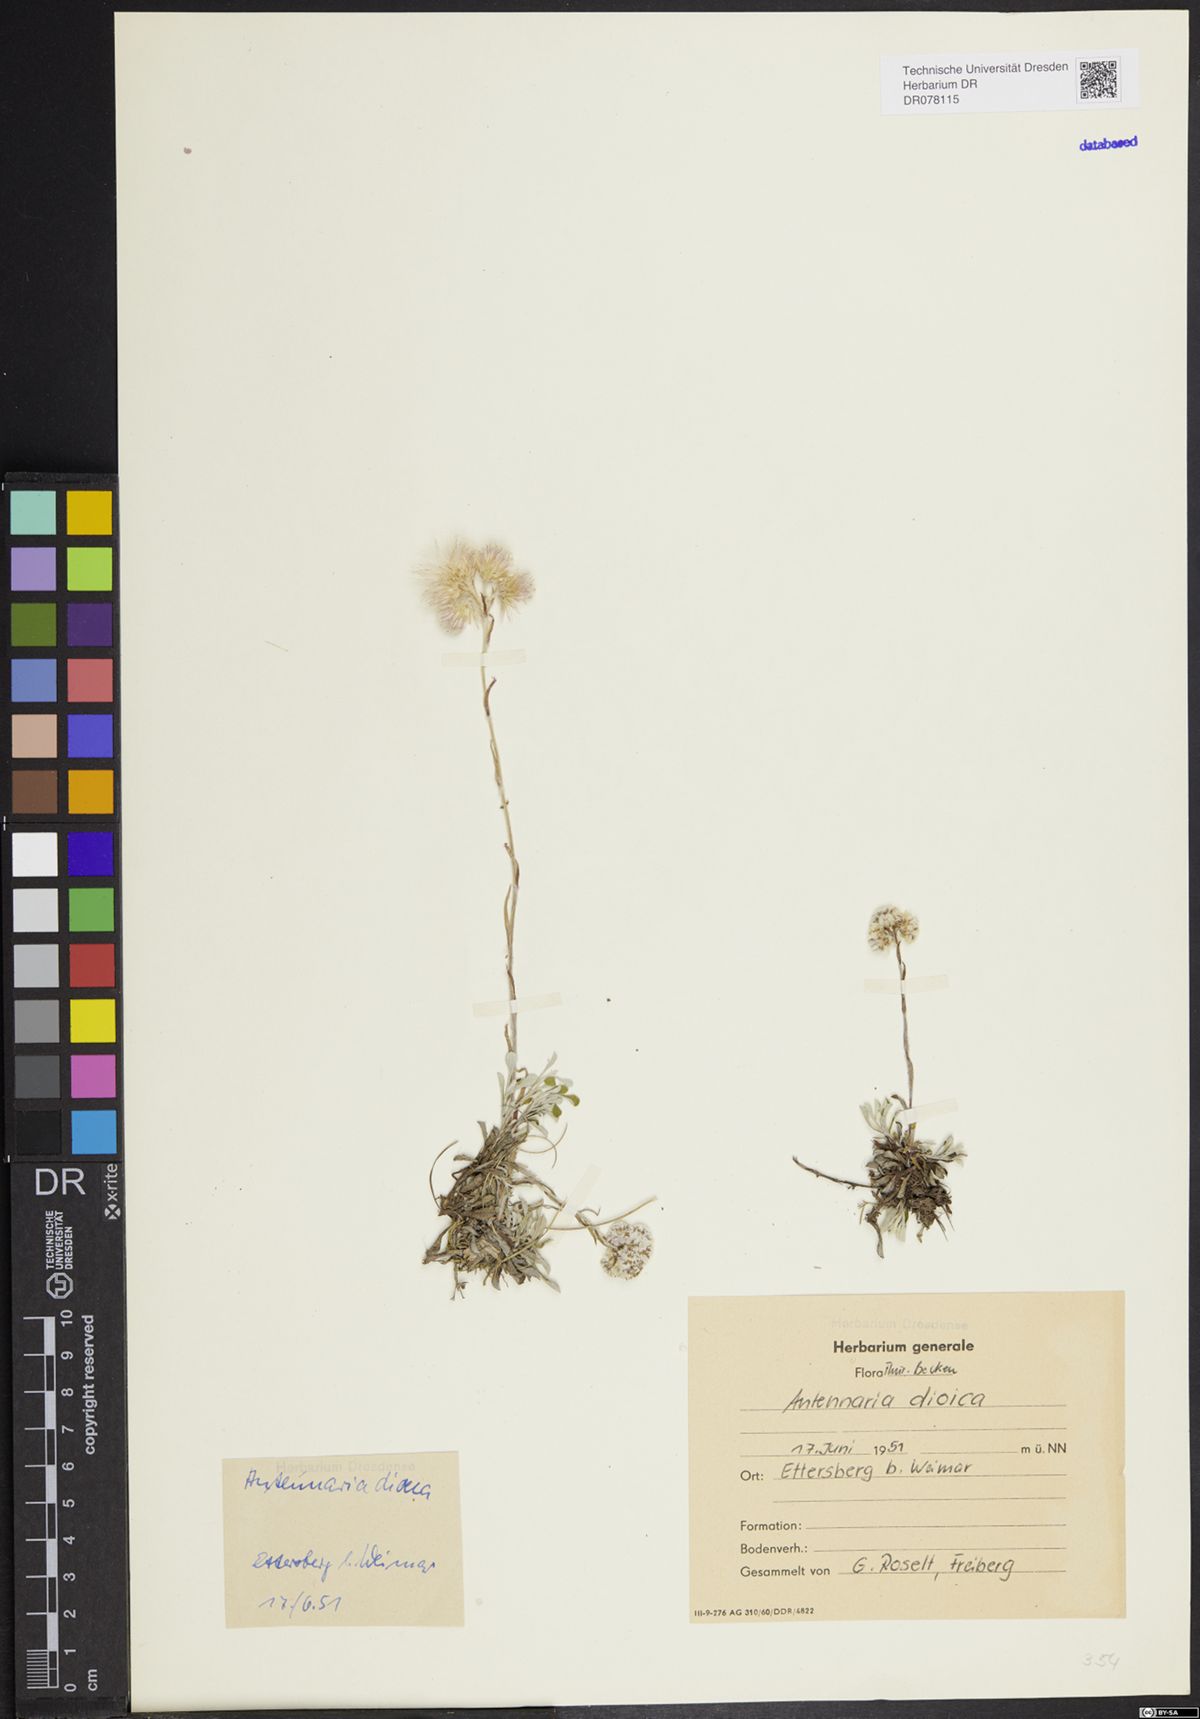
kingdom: Plantae
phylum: Tracheophyta
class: Magnoliopsida
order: Asterales
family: Asteraceae
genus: Antennaria
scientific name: Antennaria dioica
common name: Mountain everlasting
